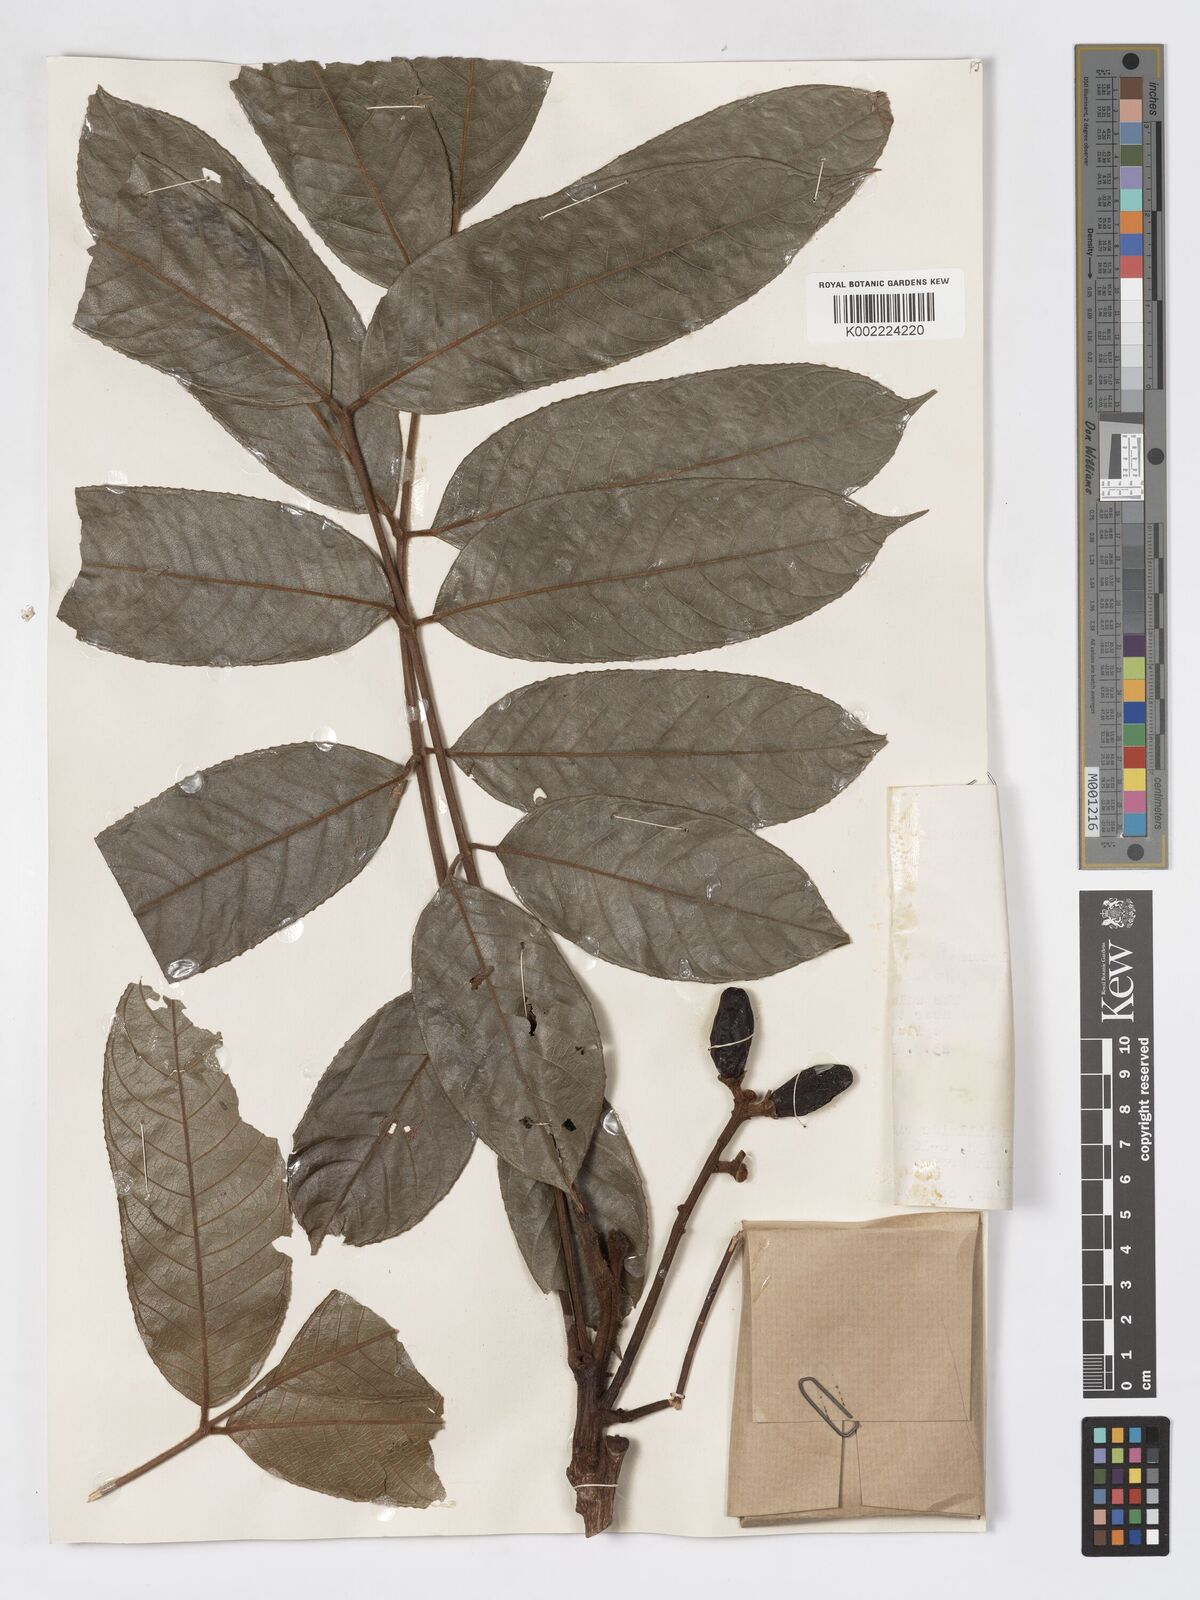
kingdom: Plantae
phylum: Tracheophyta
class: Magnoliopsida
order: Sapindales
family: Burseraceae
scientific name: Burseraceae
